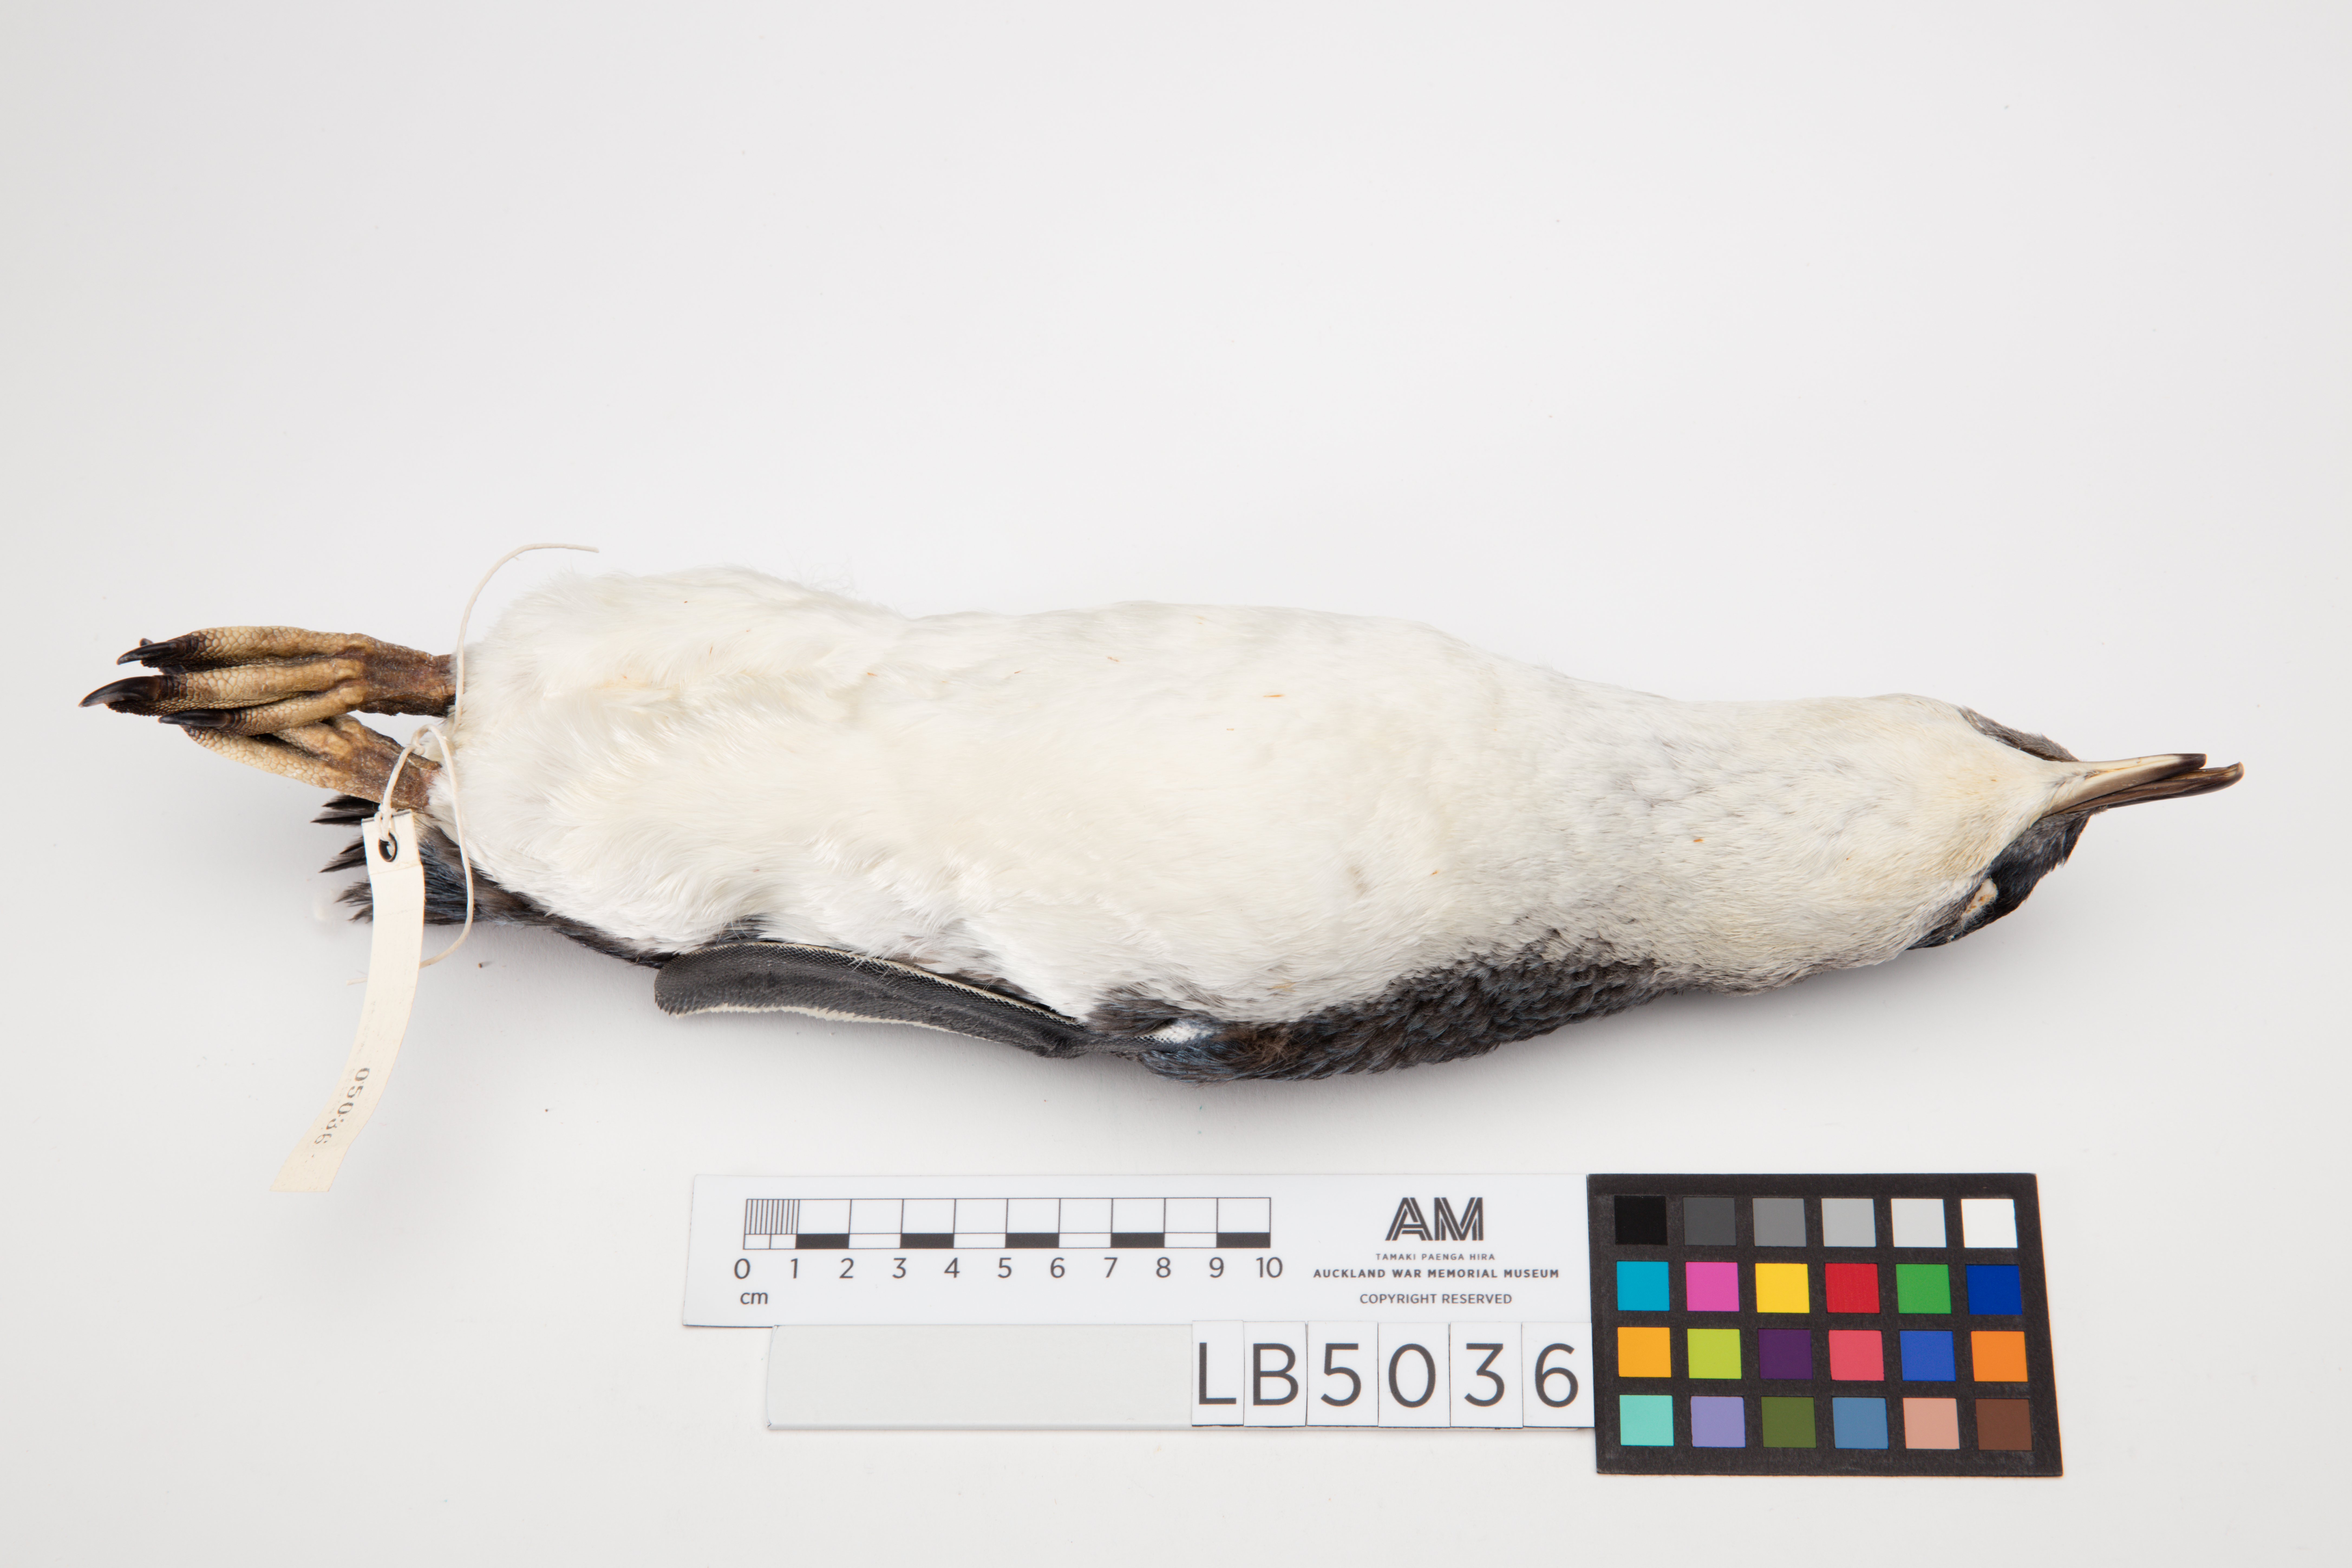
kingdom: Animalia
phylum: Chordata
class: Aves
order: Sphenisciformes
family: Spheniscidae
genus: Eudyptula
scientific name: Eudyptula minor
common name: Little penguin
